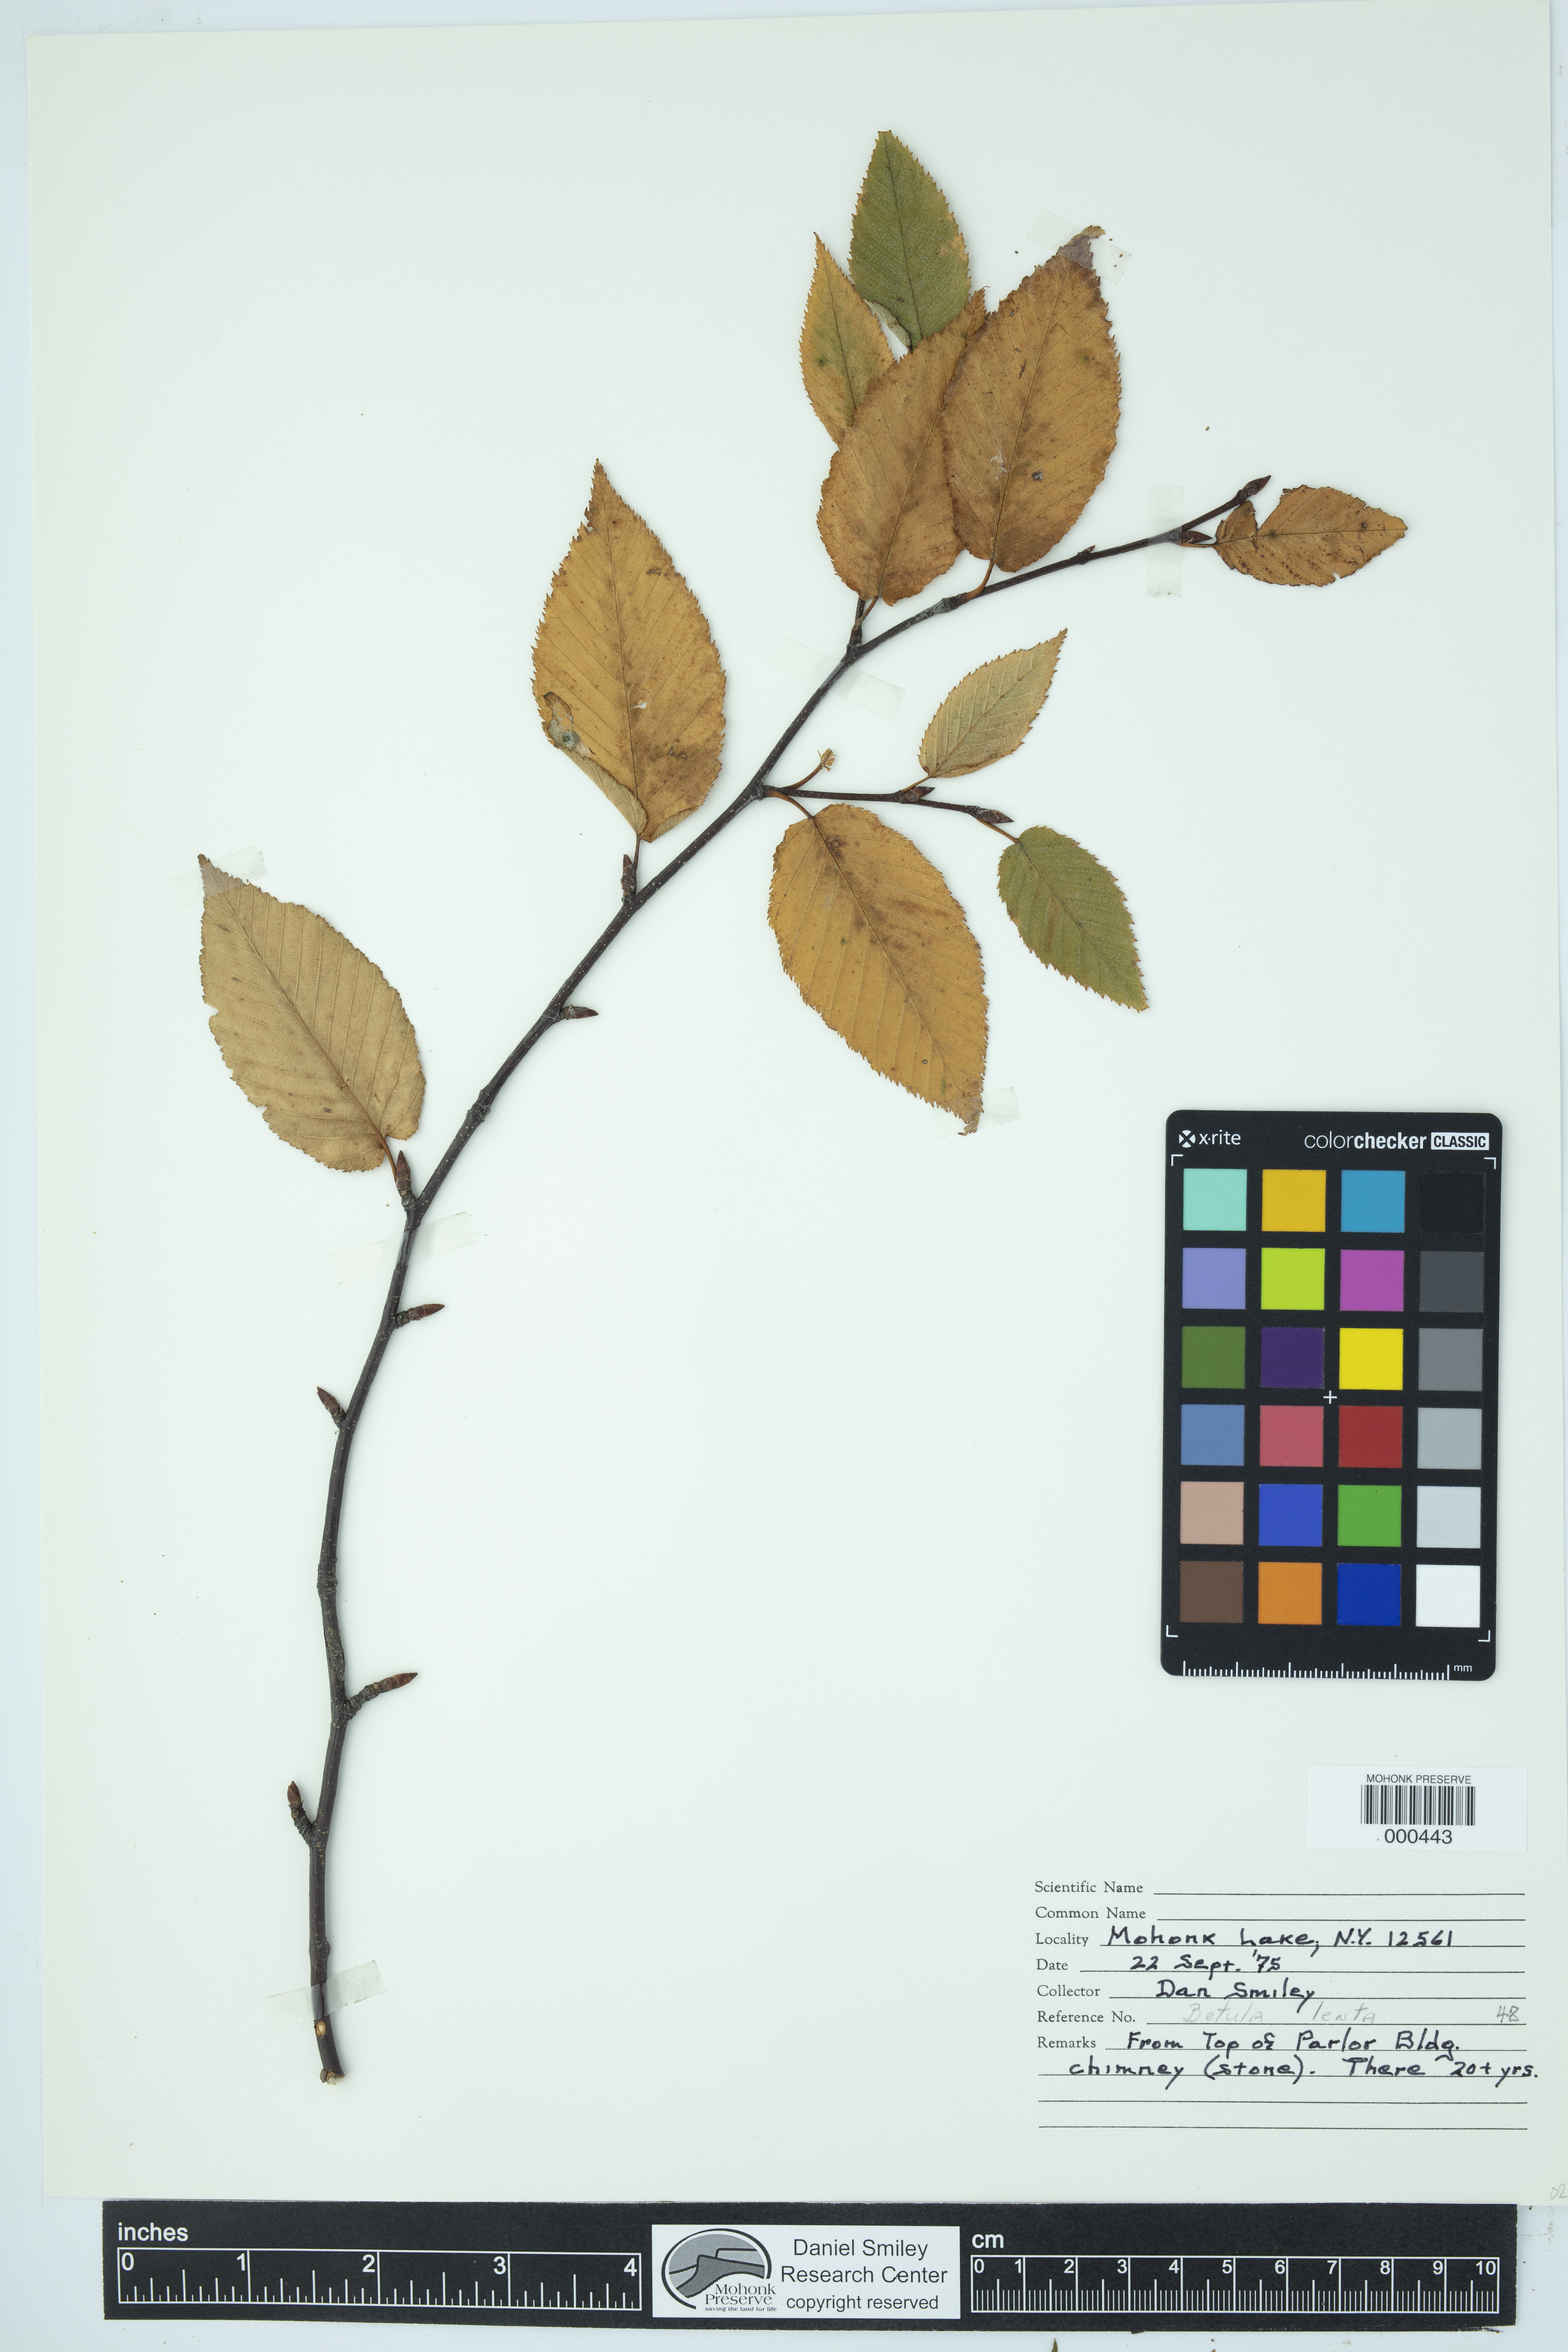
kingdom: Plantae
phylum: Tracheophyta
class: Magnoliopsida
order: Fagales
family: Betulaceae
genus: Betula
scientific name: Betula lenta
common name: Black birch
